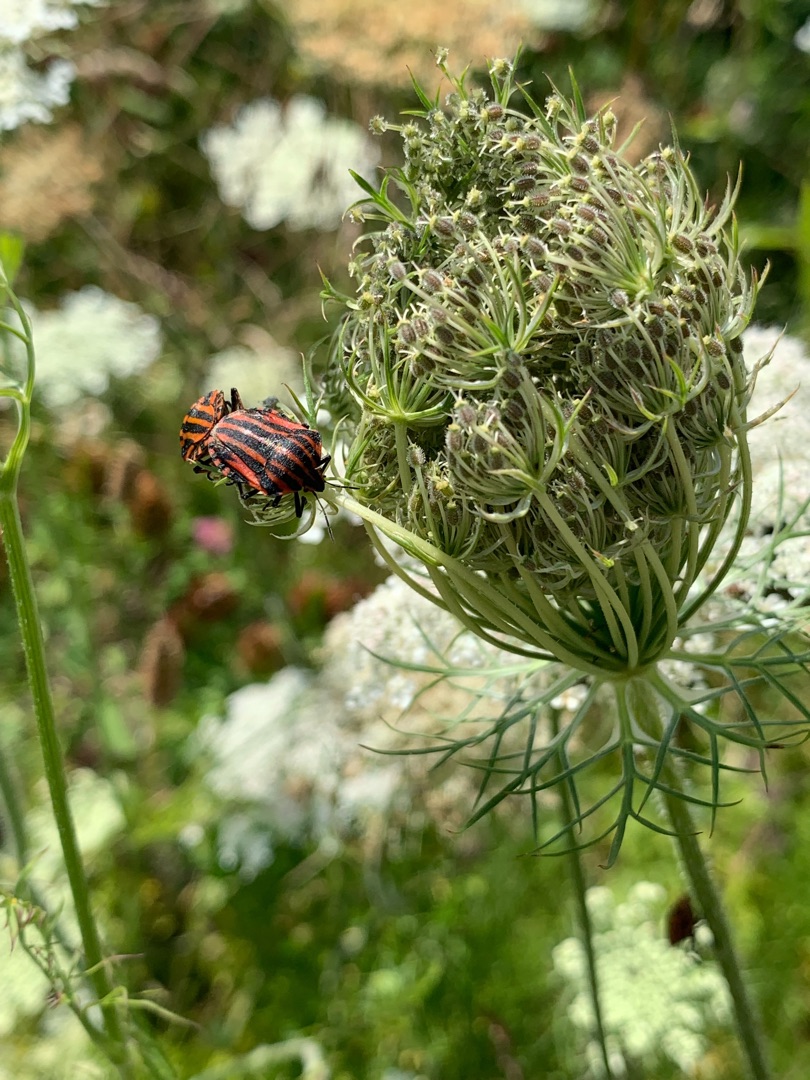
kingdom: Animalia
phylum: Arthropoda
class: Insecta
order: Hemiptera
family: Pentatomidae
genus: Graphosoma
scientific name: Graphosoma italicum
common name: Stribetæge
